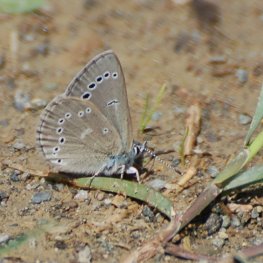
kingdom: Animalia
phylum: Arthropoda
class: Insecta
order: Lepidoptera
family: Lycaenidae
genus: Glaucopsyche
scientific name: Glaucopsyche lygdamus
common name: Silvery Blue
